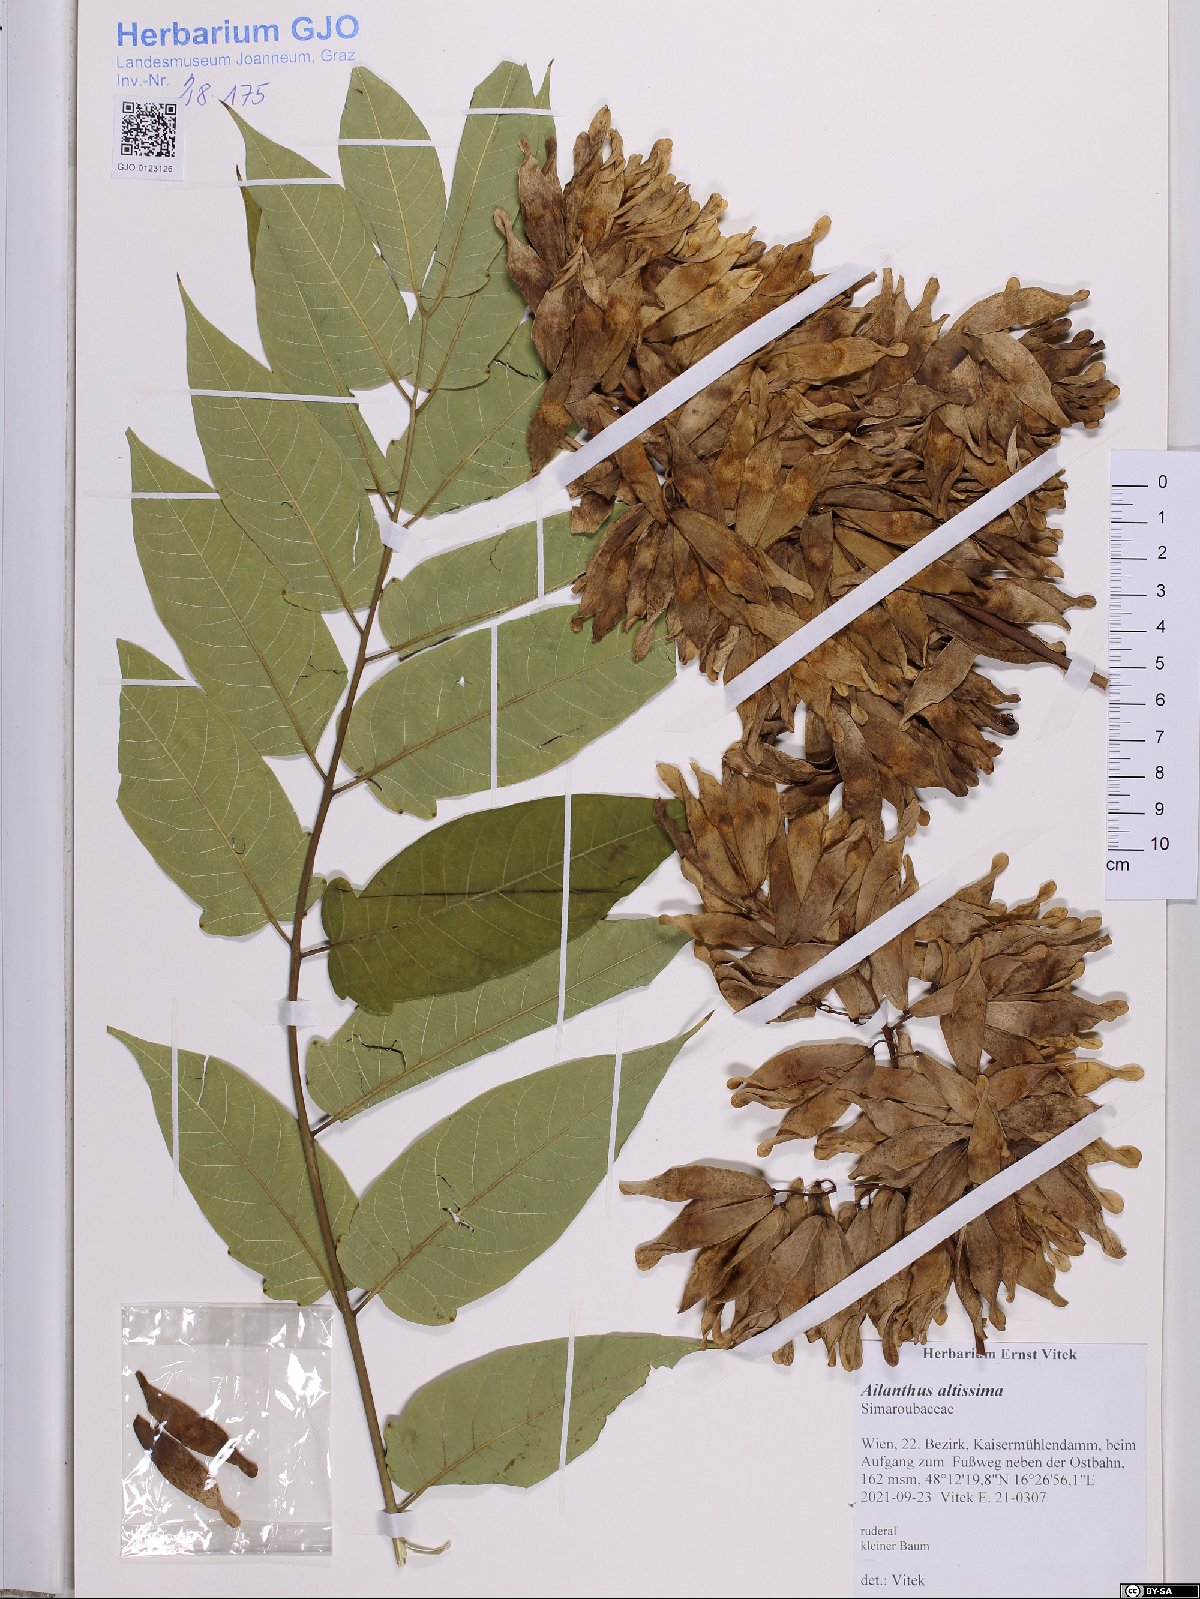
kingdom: Plantae
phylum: Tracheophyta
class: Magnoliopsida
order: Sapindales
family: Simaroubaceae
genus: Ailanthus
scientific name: Ailanthus altissima
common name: Tree-of-heaven
